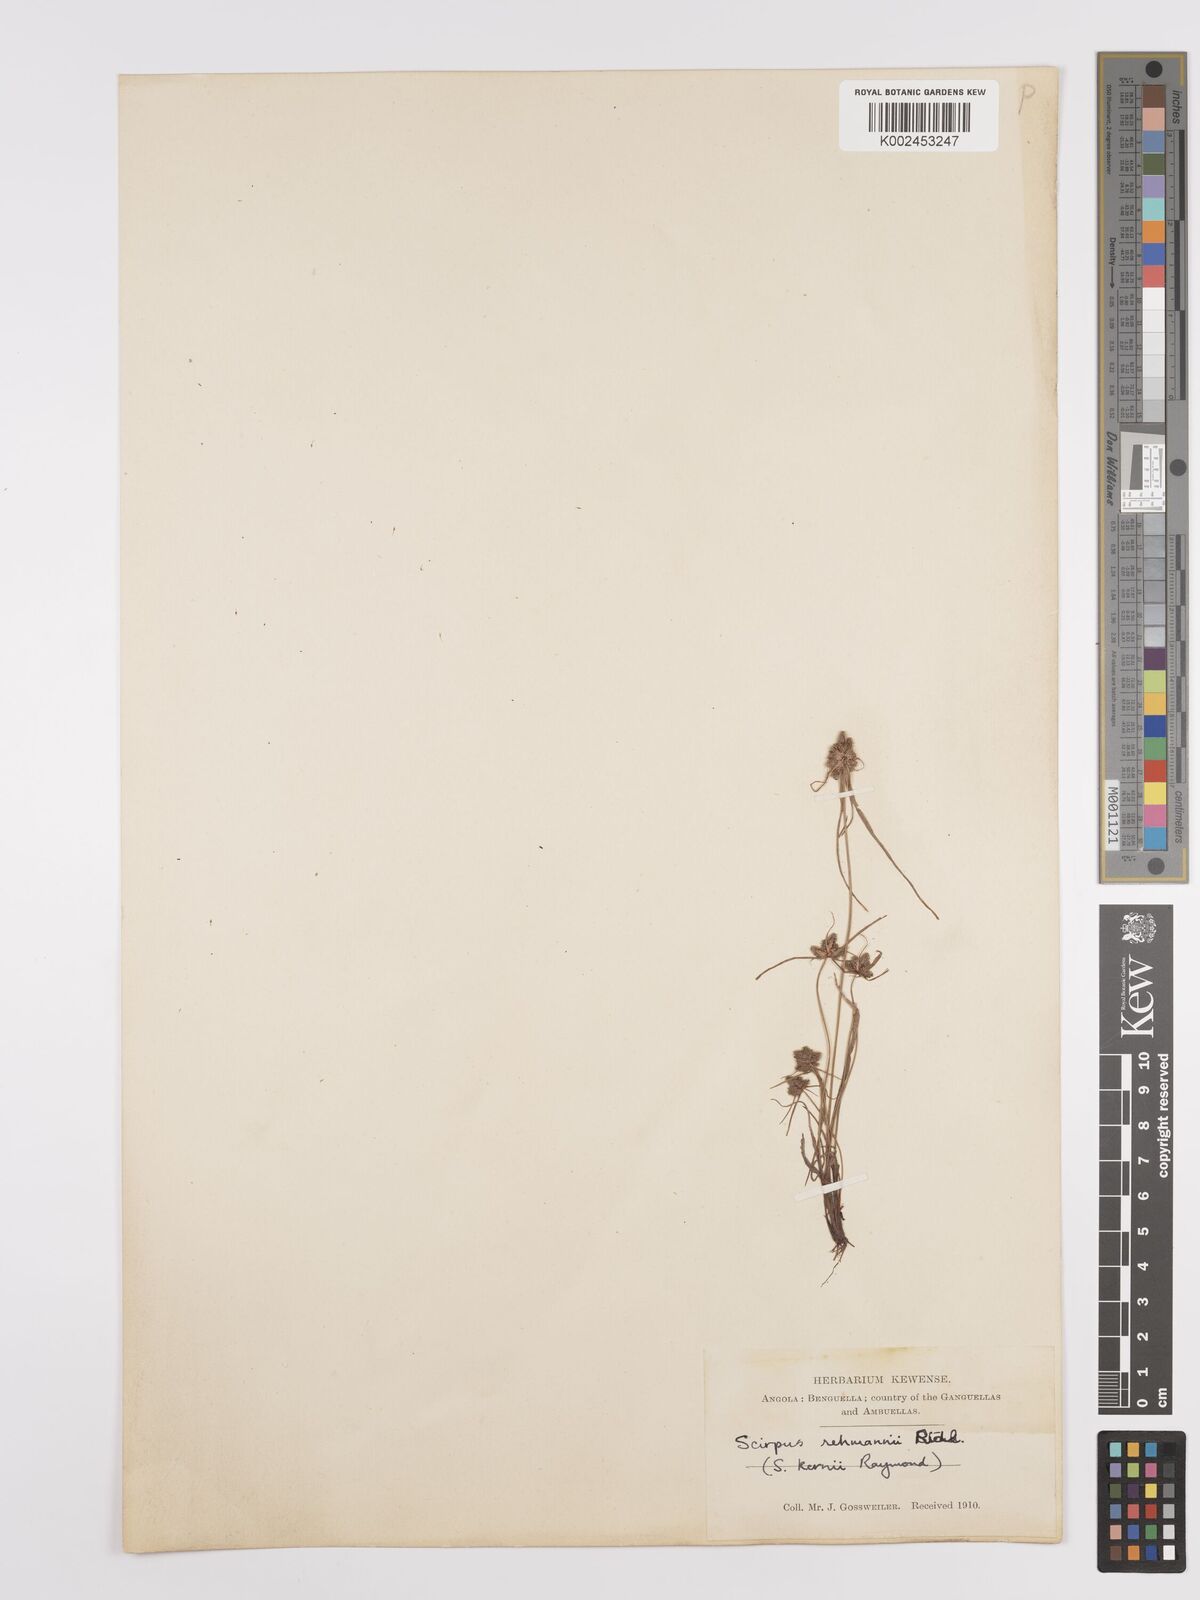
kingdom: Plantae
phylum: Tracheophyta
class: Liliopsida
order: Poales
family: Cyperaceae
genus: Cyperus
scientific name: Cyperus sanguinolentus
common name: Purpleglume flatsedge
